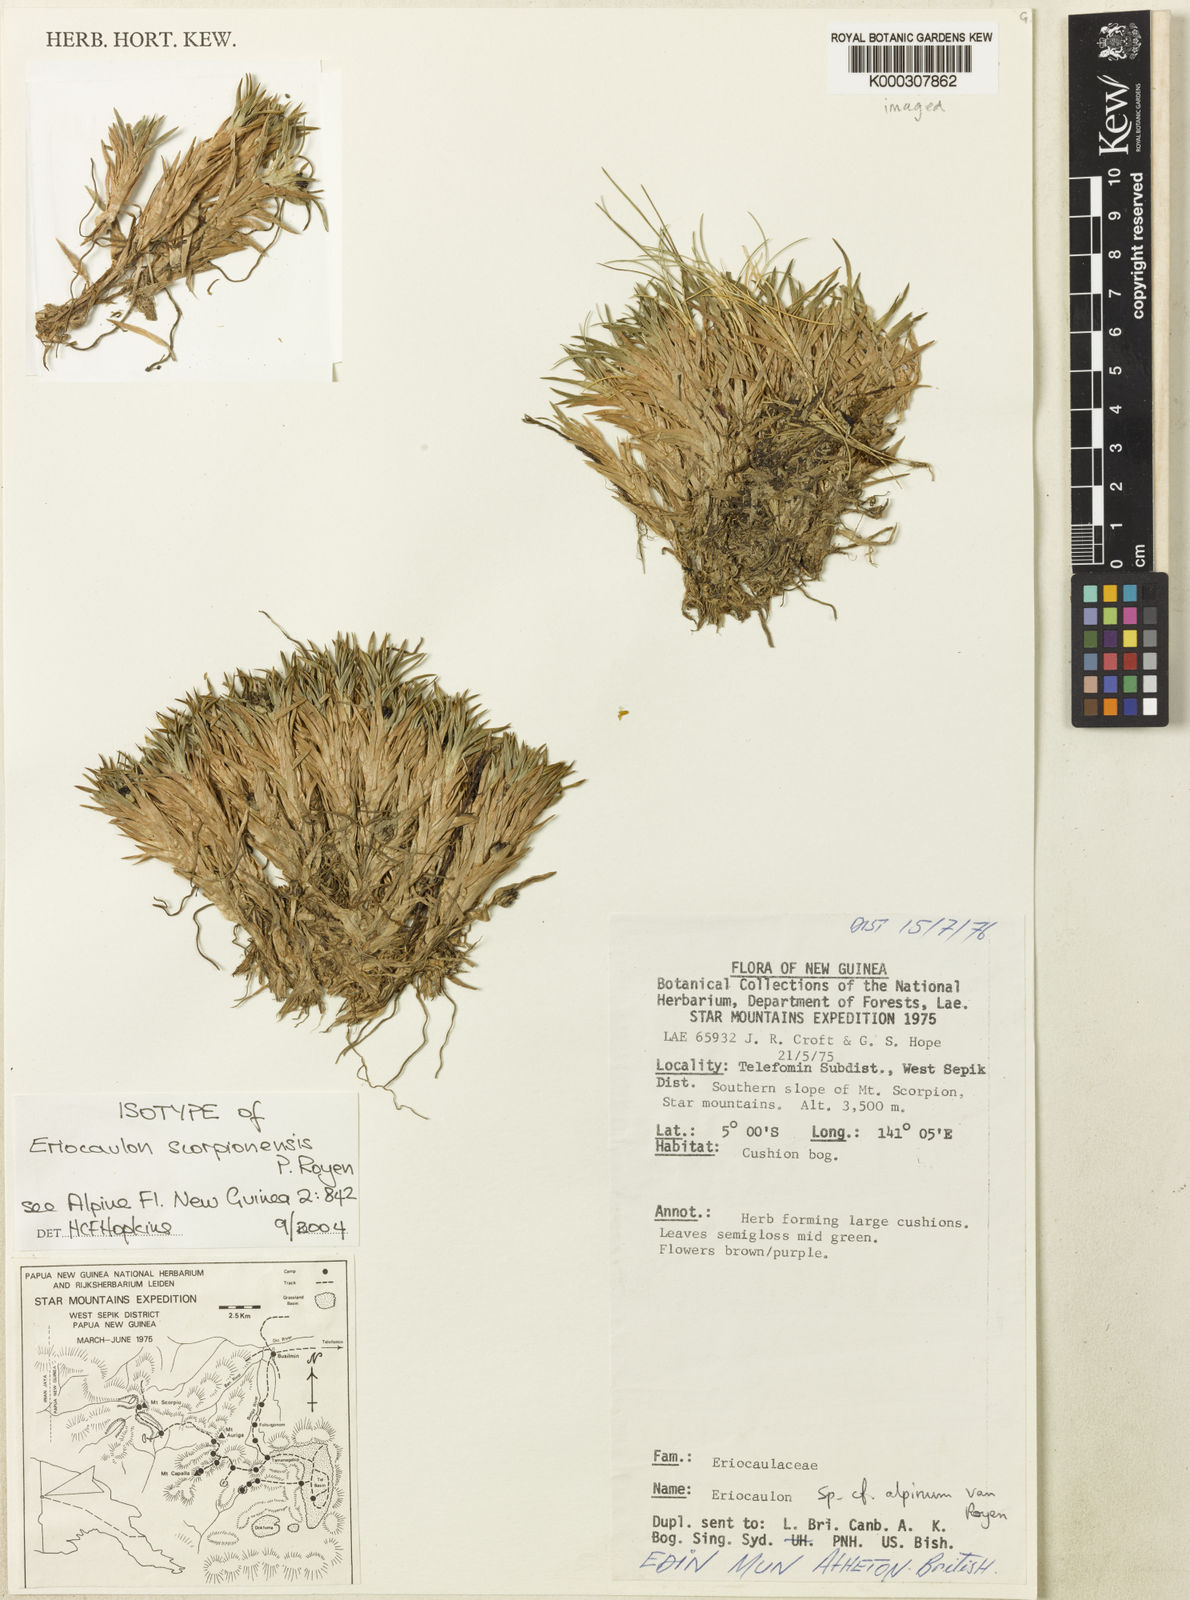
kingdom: Plantae
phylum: Tracheophyta
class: Liliopsida
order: Poales
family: Eriocaulaceae
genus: Eriocaulon
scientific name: Eriocaulon scorpionensis
